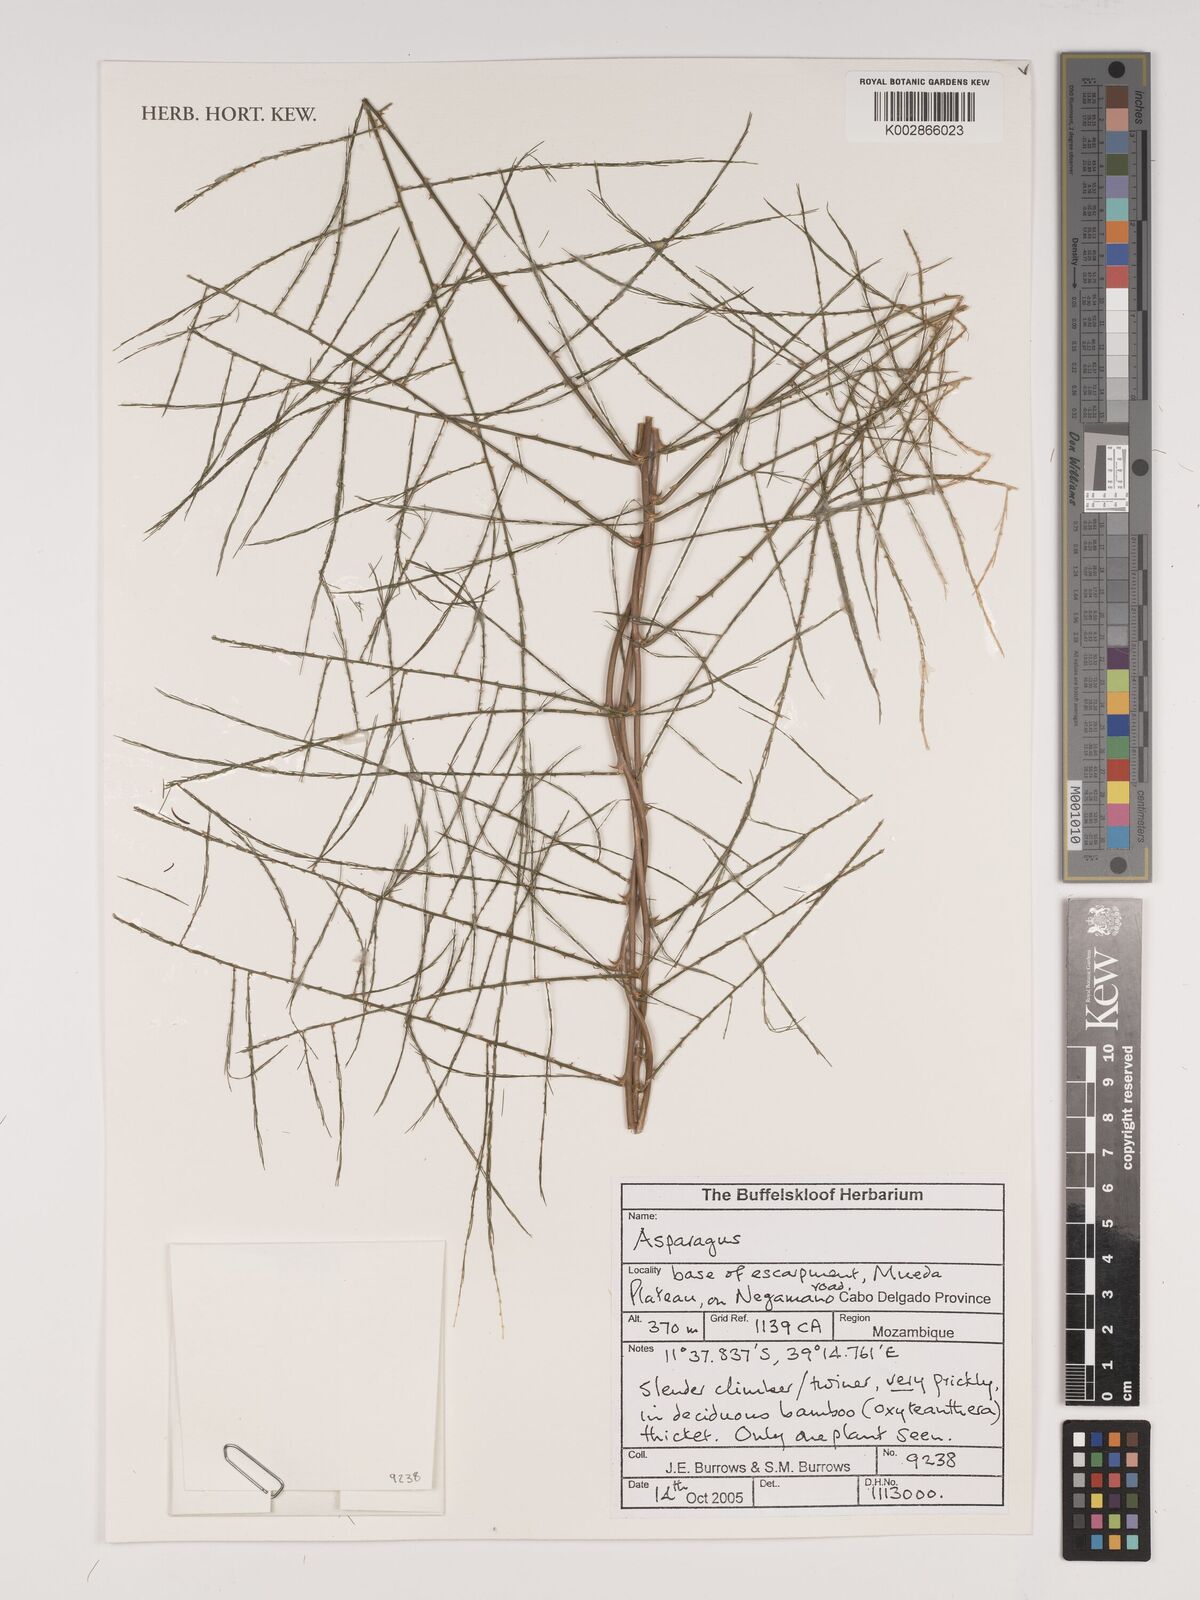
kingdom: Plantae
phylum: Tracheophyta
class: Liliopsida
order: Asparagales
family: Asparagaceae
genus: Asparagus
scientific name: Asparagus
